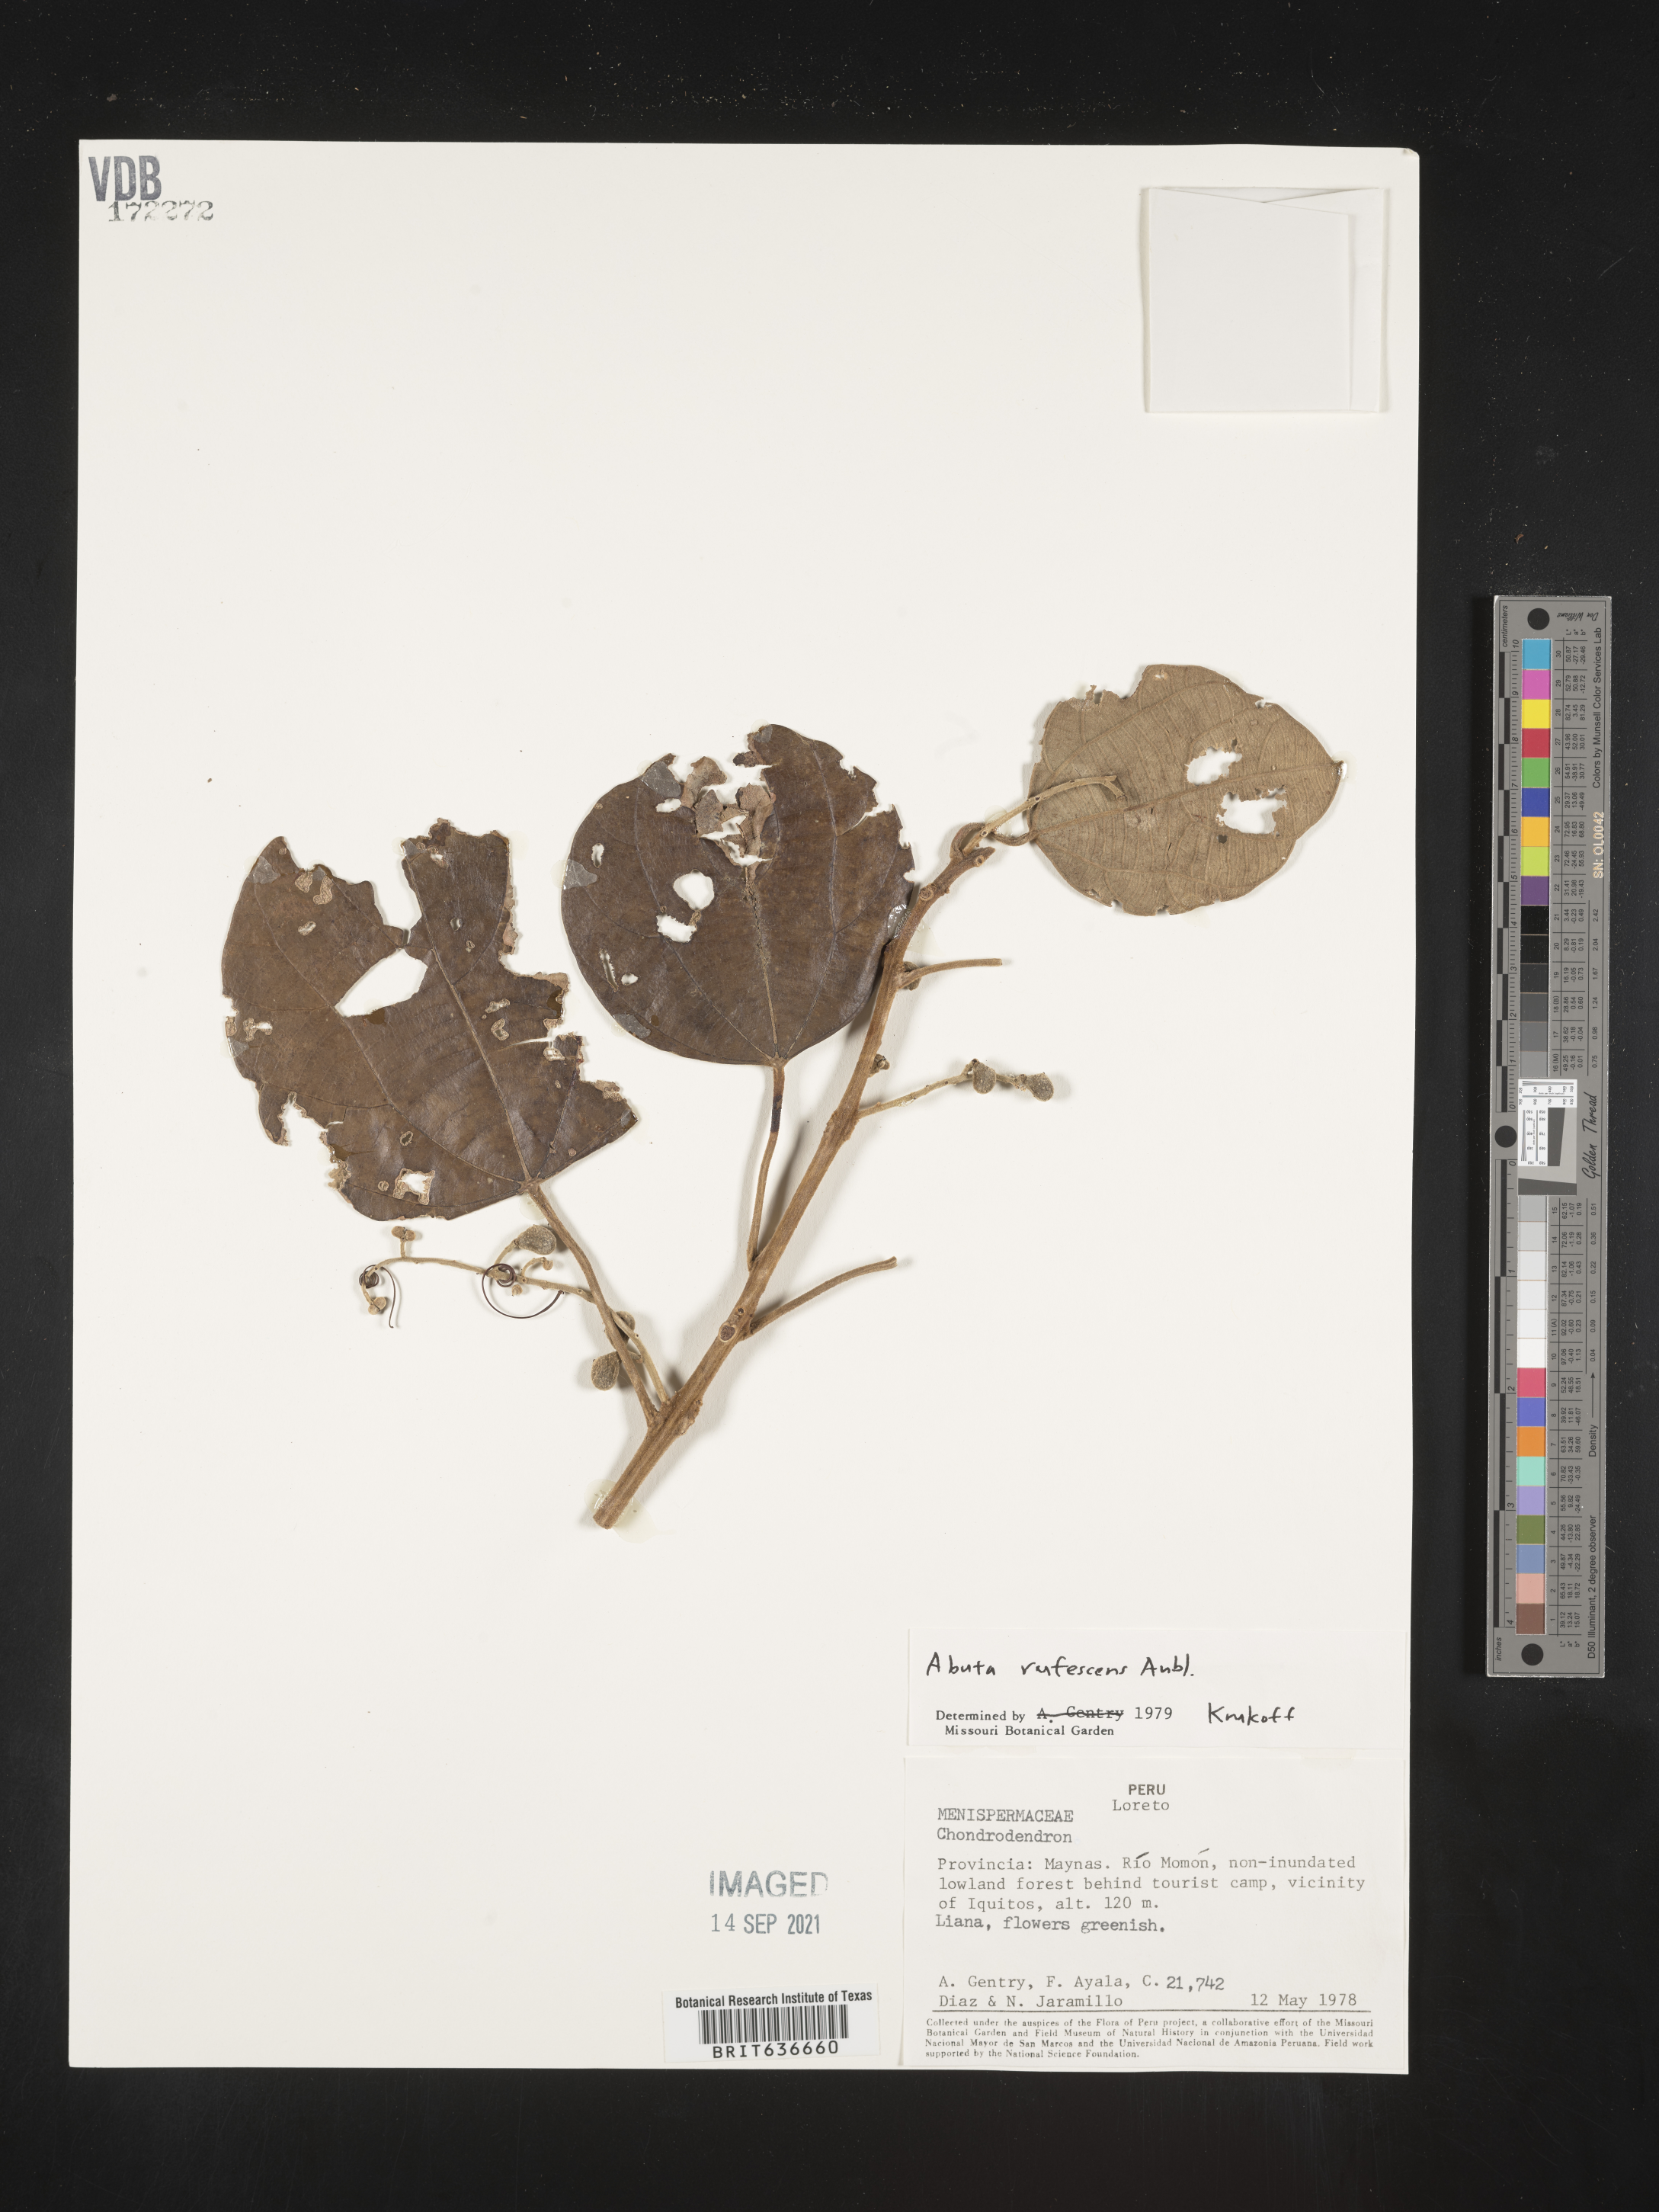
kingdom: Plantae
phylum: Tracheophyta
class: Magnoliopsida
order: Ranunculales
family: Menispermaceae
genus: Abuta
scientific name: Abuta
